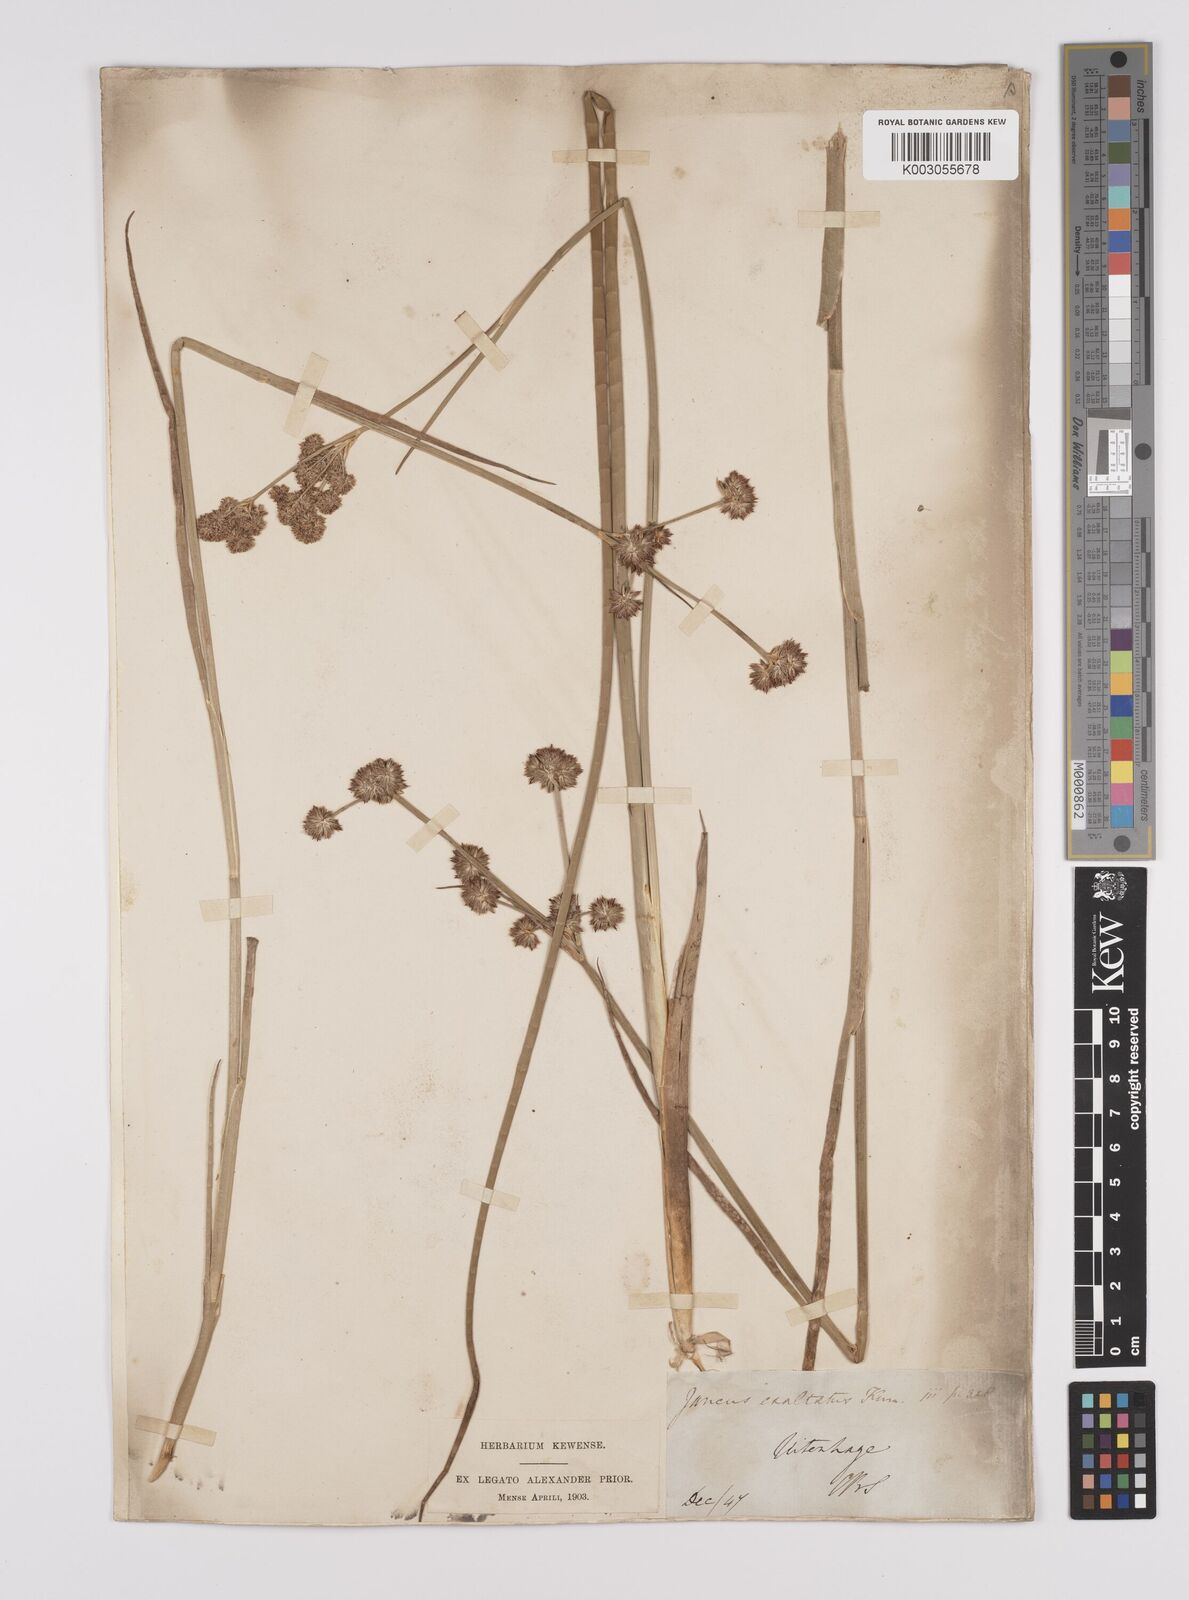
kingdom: Plantae
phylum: Tracheophyta
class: Liliopsida
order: Poales
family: Juncaceae
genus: Juncus
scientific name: Juncus punctorius
